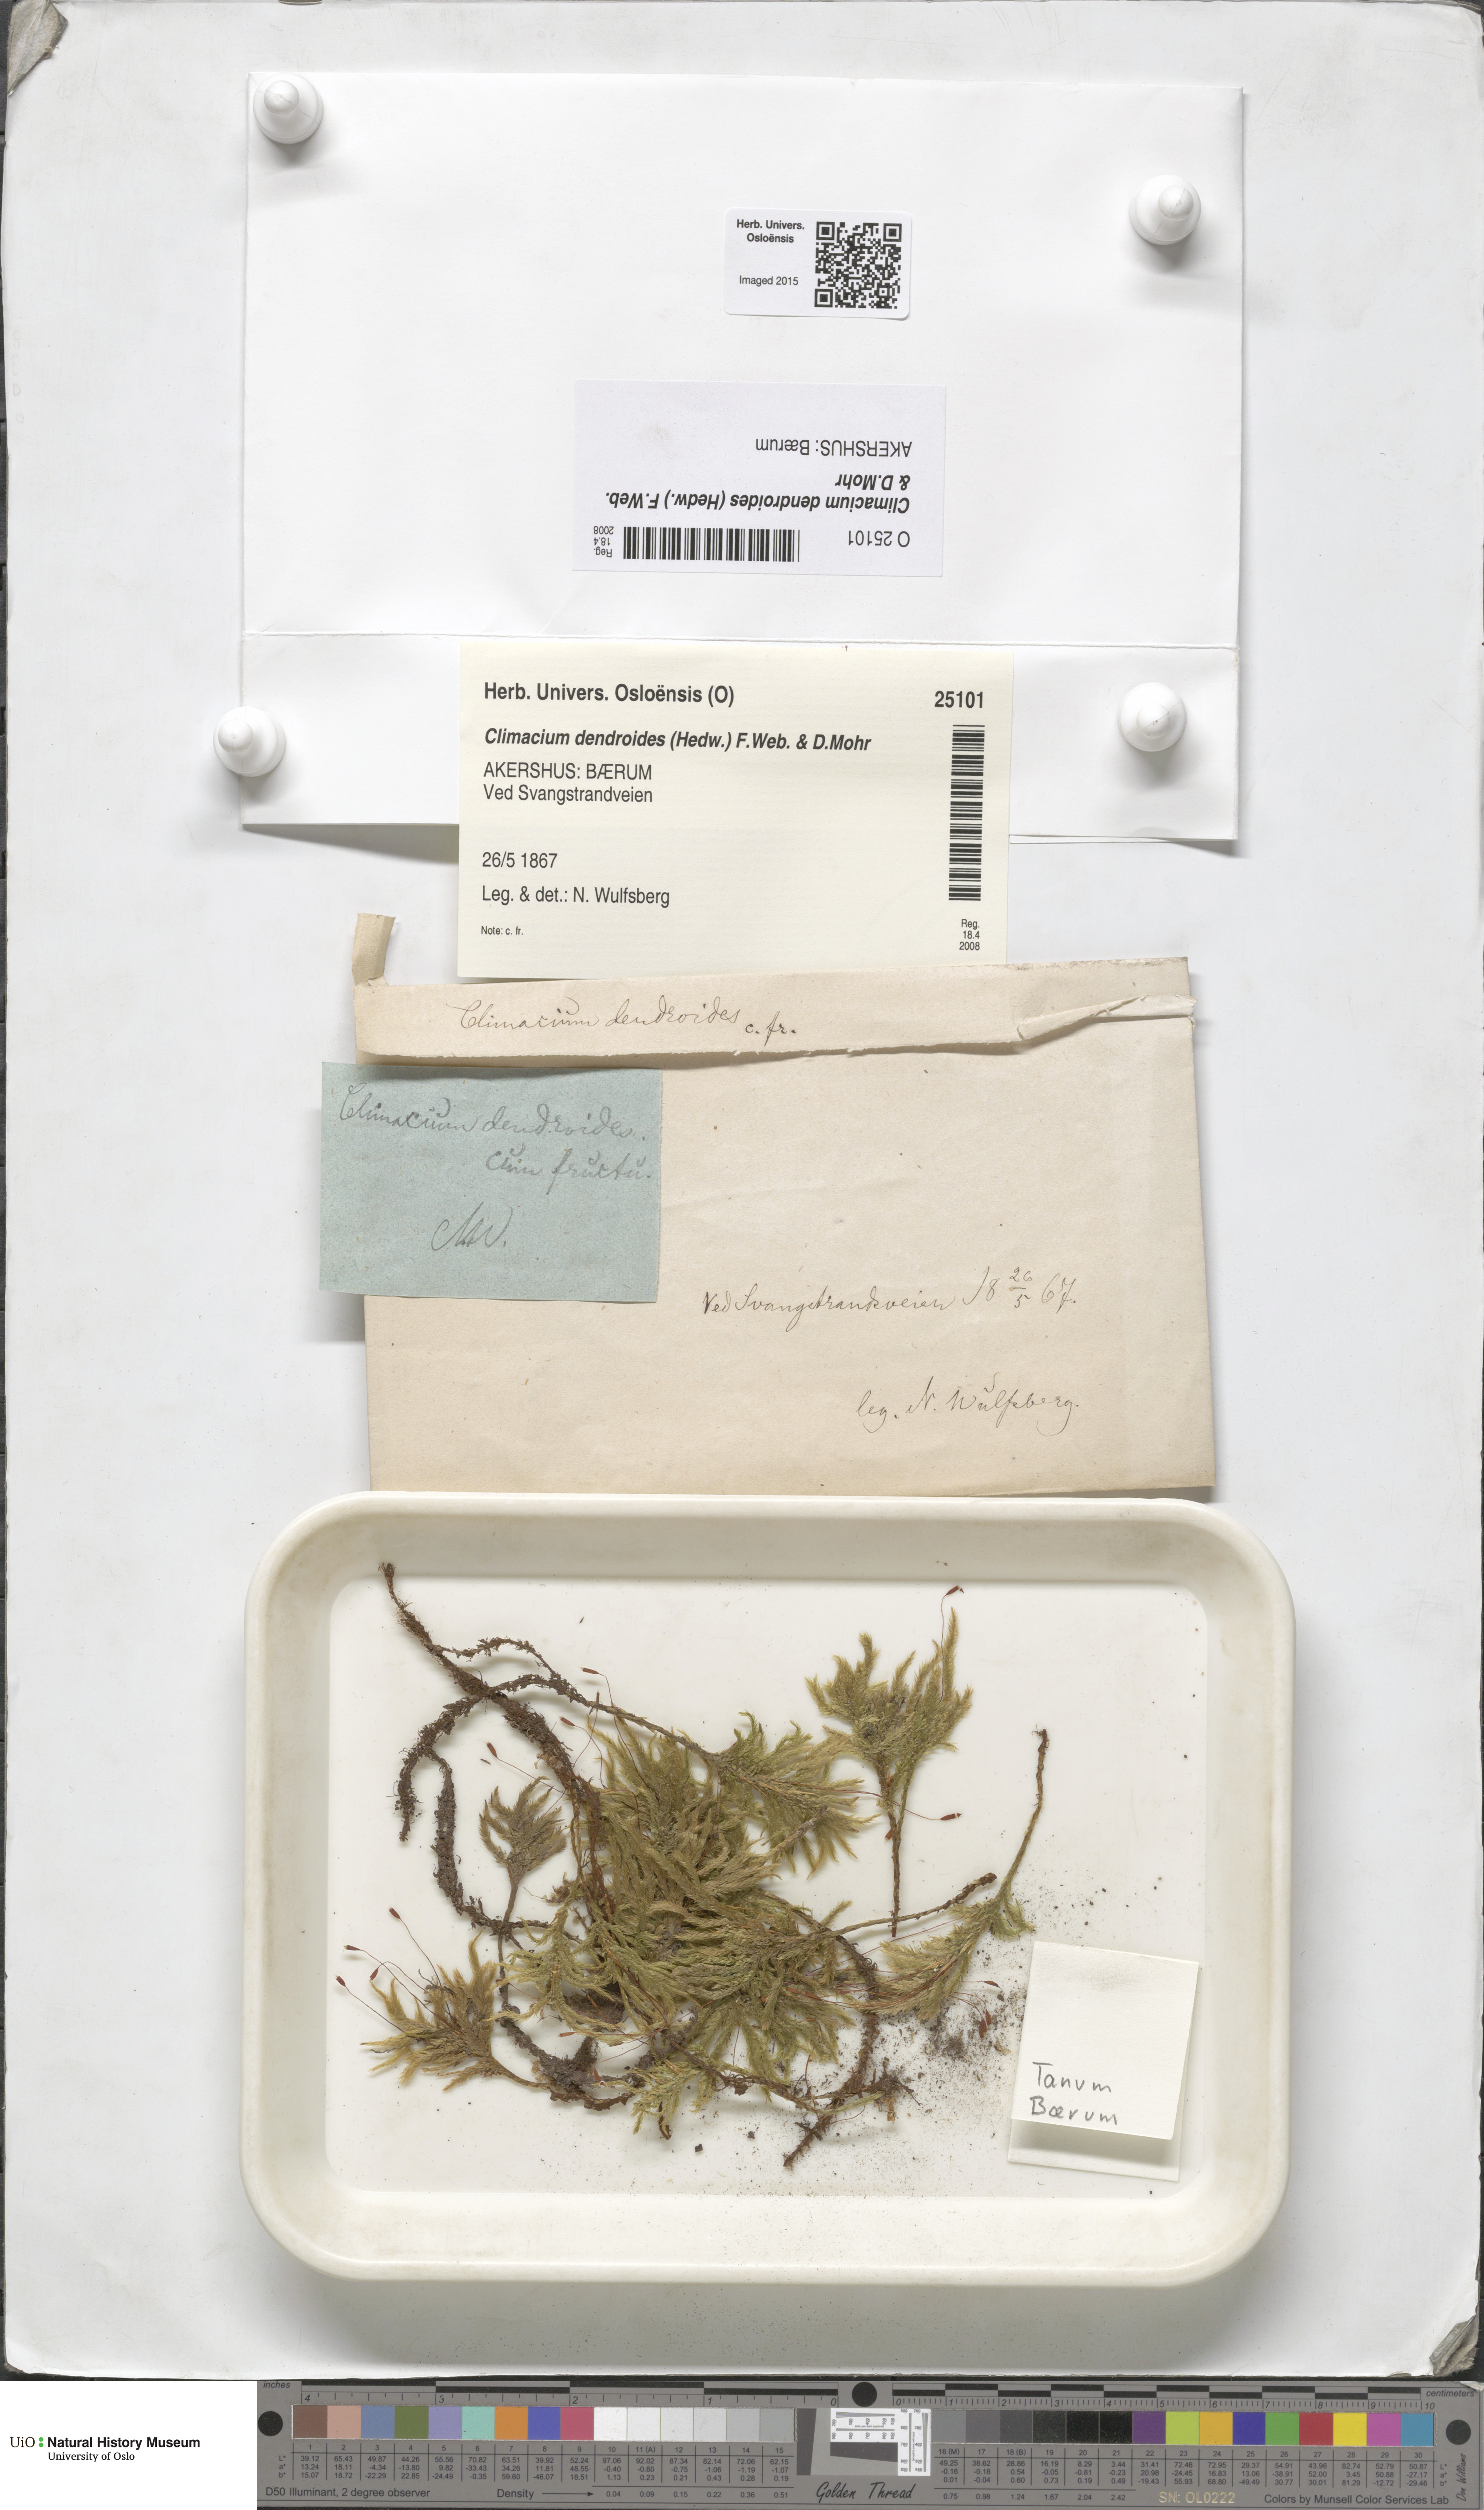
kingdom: Plantae
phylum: Bryophyta
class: Bryopsida
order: Hypnales
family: Climaciaceae
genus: Climacium
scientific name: Climacium dendroides
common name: Northern tree moss
